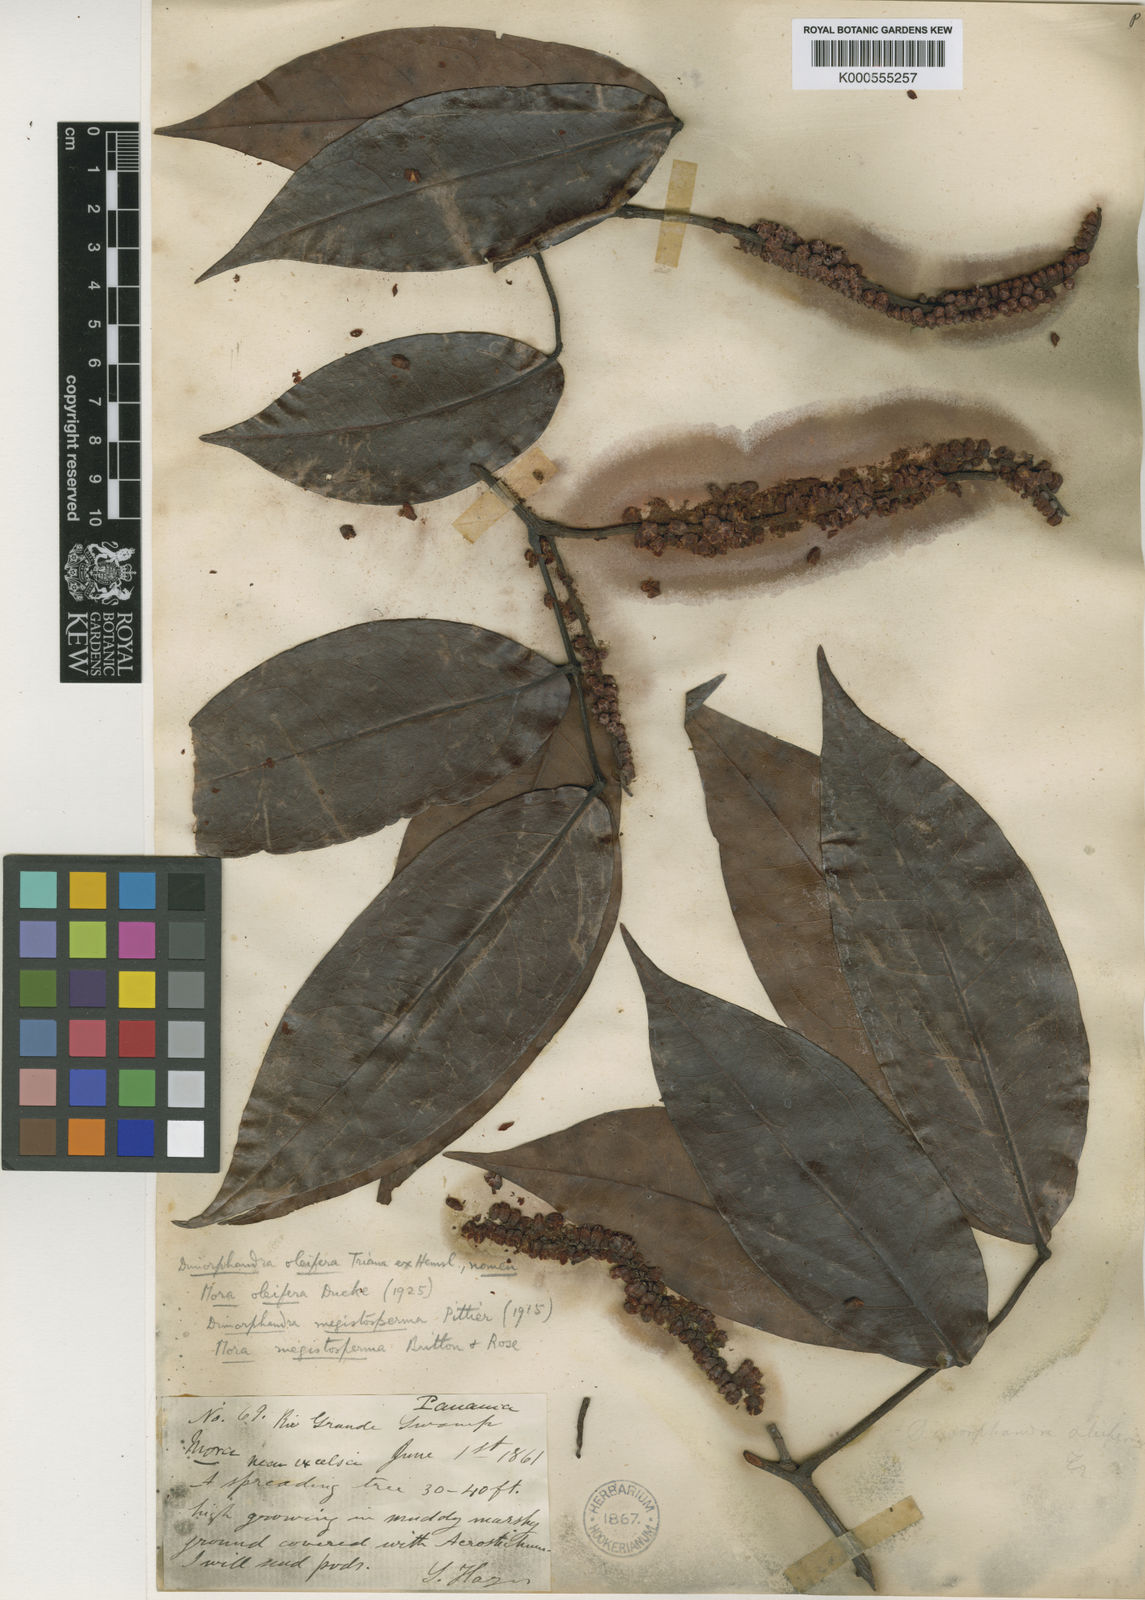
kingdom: Plantae
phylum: Tracheophyta
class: Magnoliopsida
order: Fabales
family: Fabaceae
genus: Mora
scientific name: Mora oleifera
